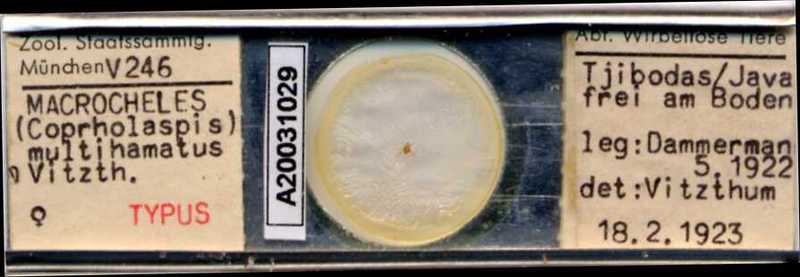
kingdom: Animalia
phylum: Arthropoda
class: Arachnida
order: Mesostigmata
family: Macrochelidae
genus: Macrocheles
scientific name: Macrocheles kraepelini
